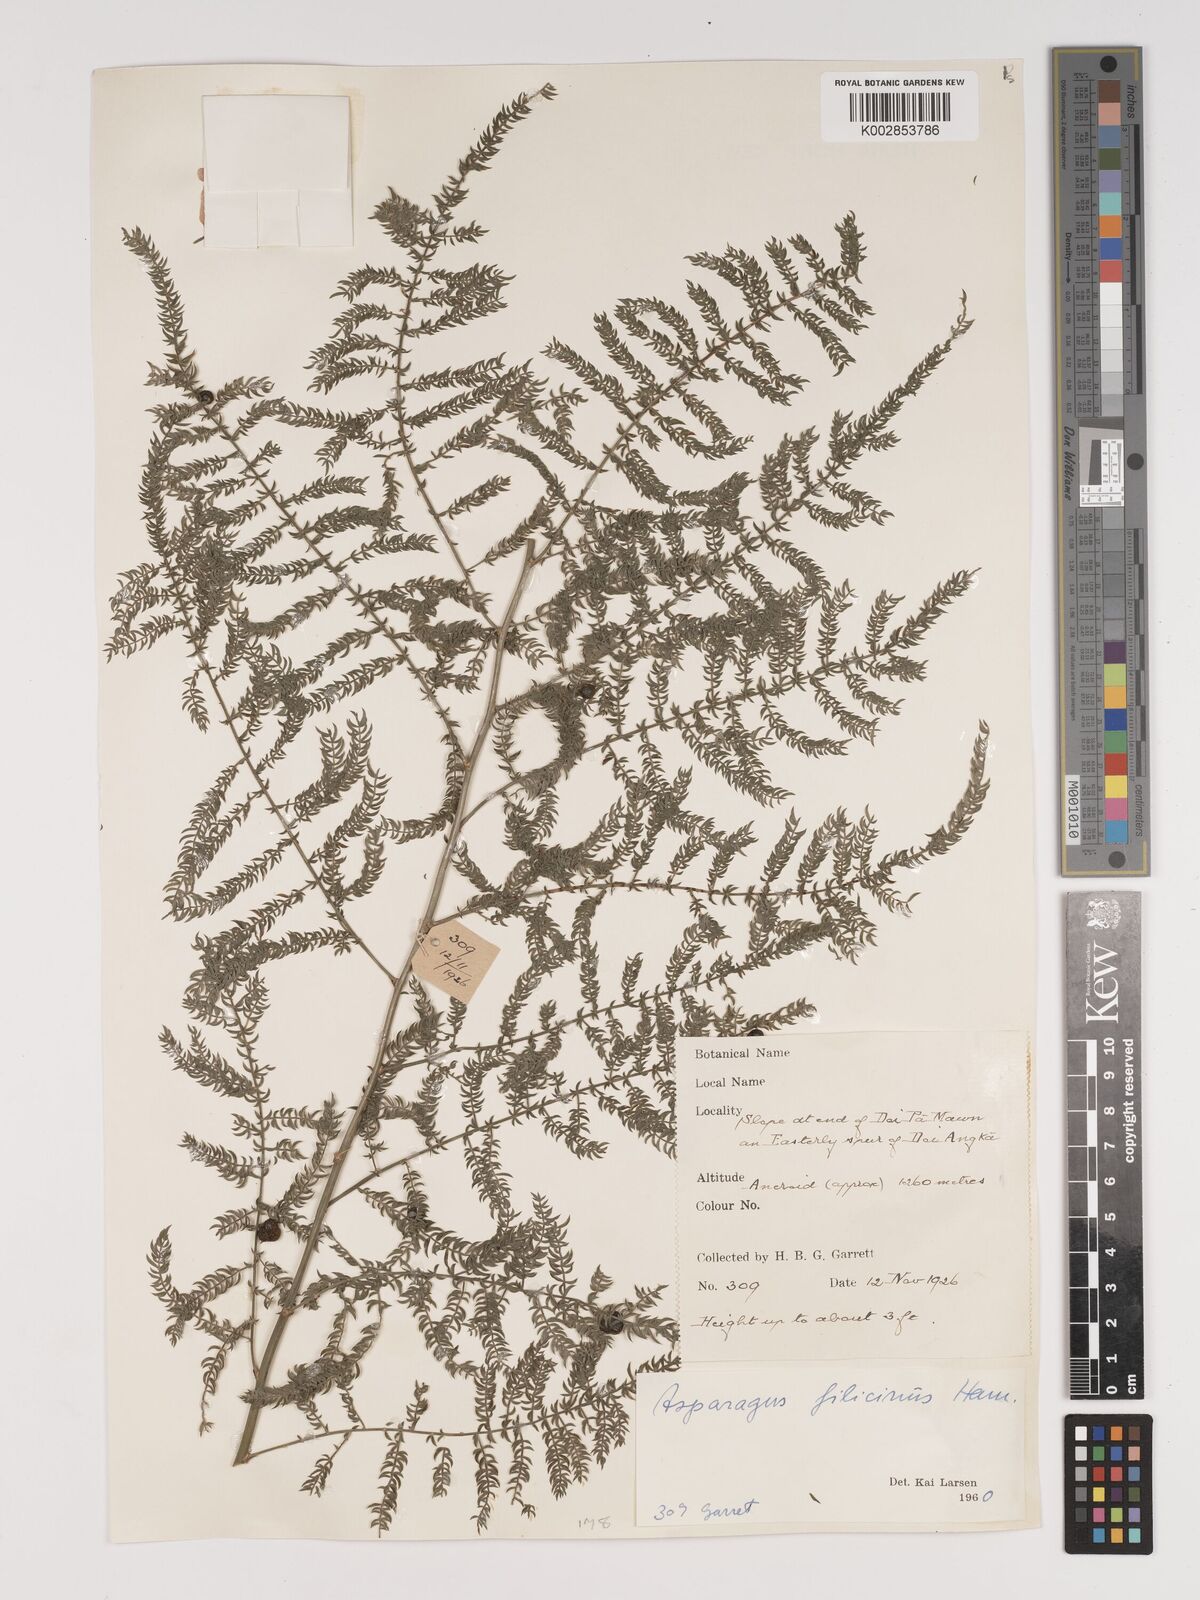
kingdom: Plantae
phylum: Tracheophyta
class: Liliopsida
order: Asparagales
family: Asparagaceae
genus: Asparagus
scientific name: Asparagus filicinus
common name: Fern asparagus
